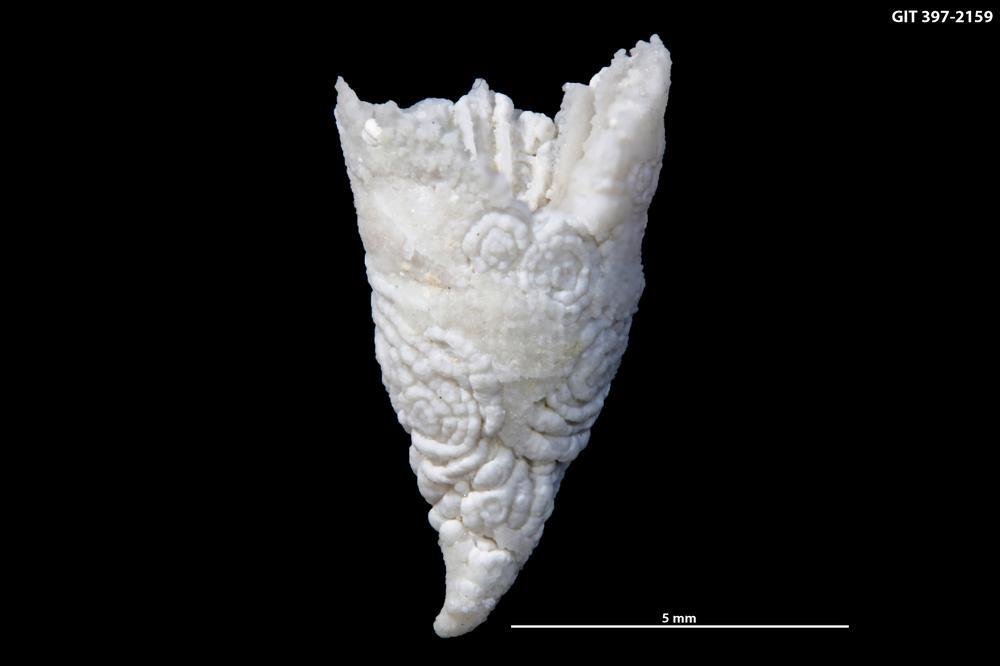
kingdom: Animalia
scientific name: Animalia
